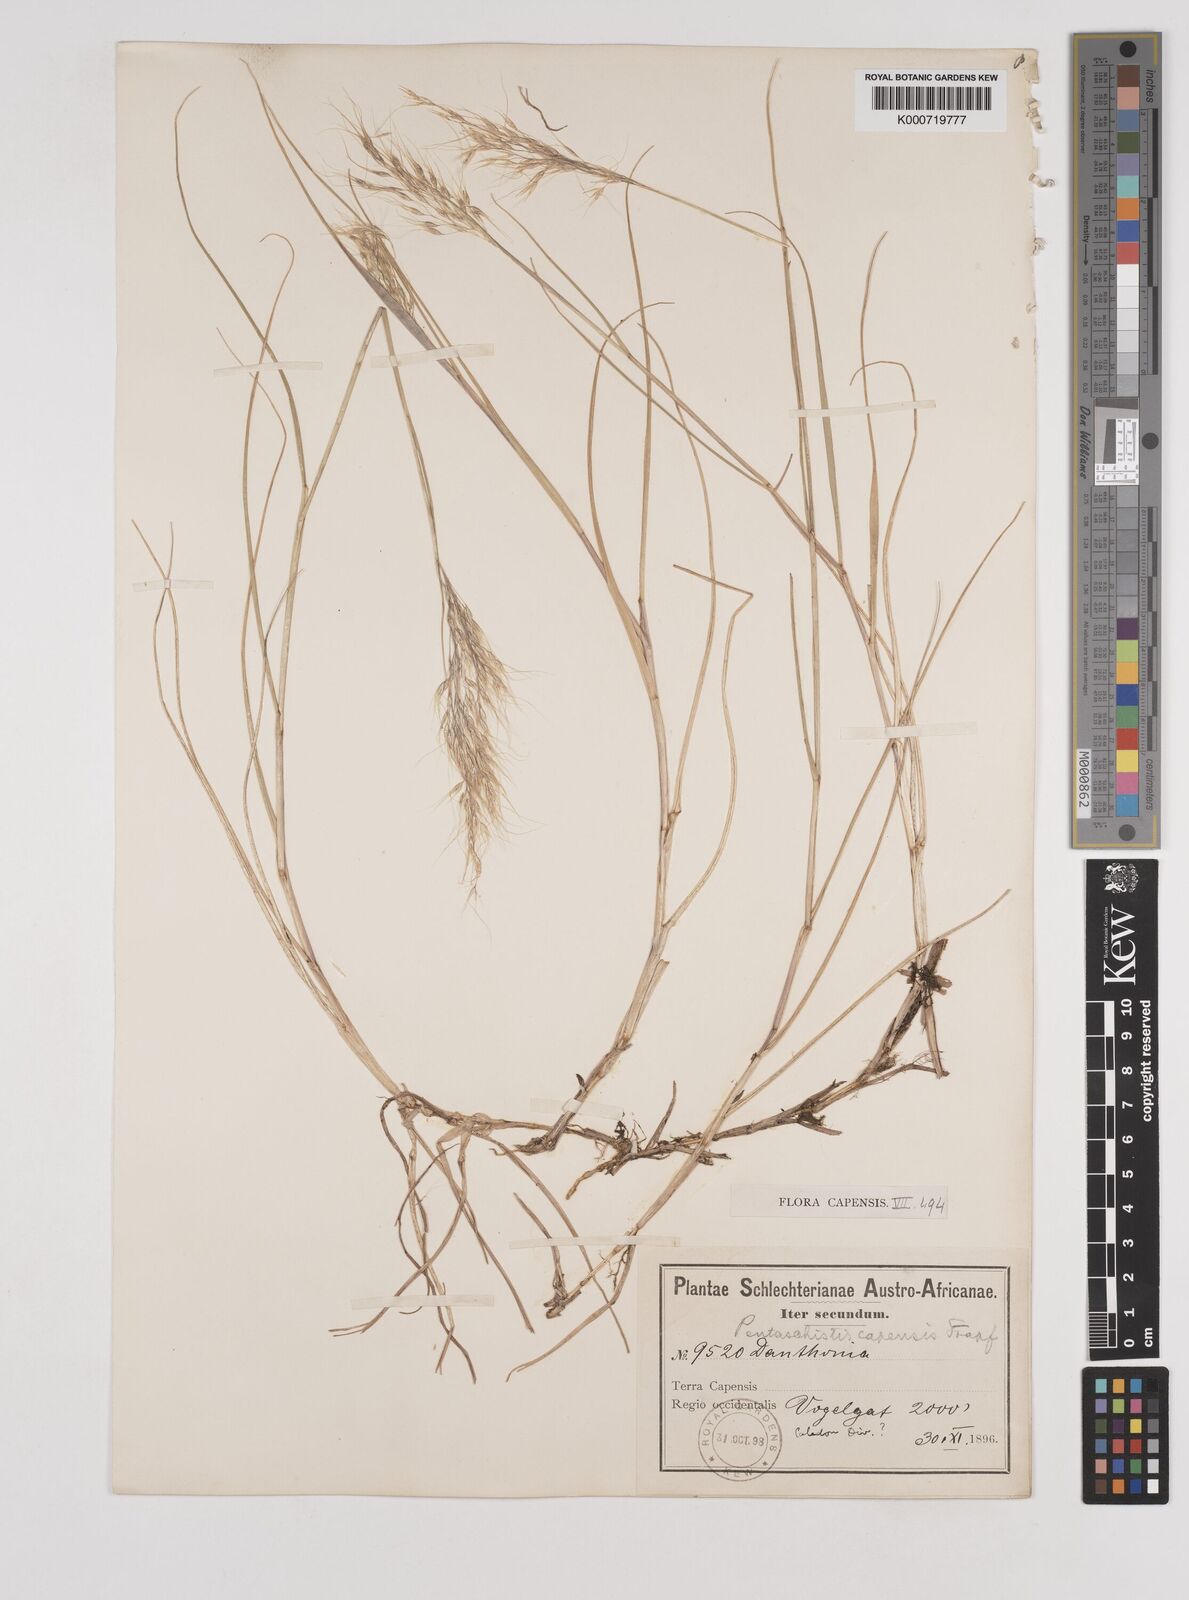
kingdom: Plantae
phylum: Tracheophyta
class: Liliopsida
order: Poales
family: Poaceae
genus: Pentameris
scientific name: Pentameris capensis
